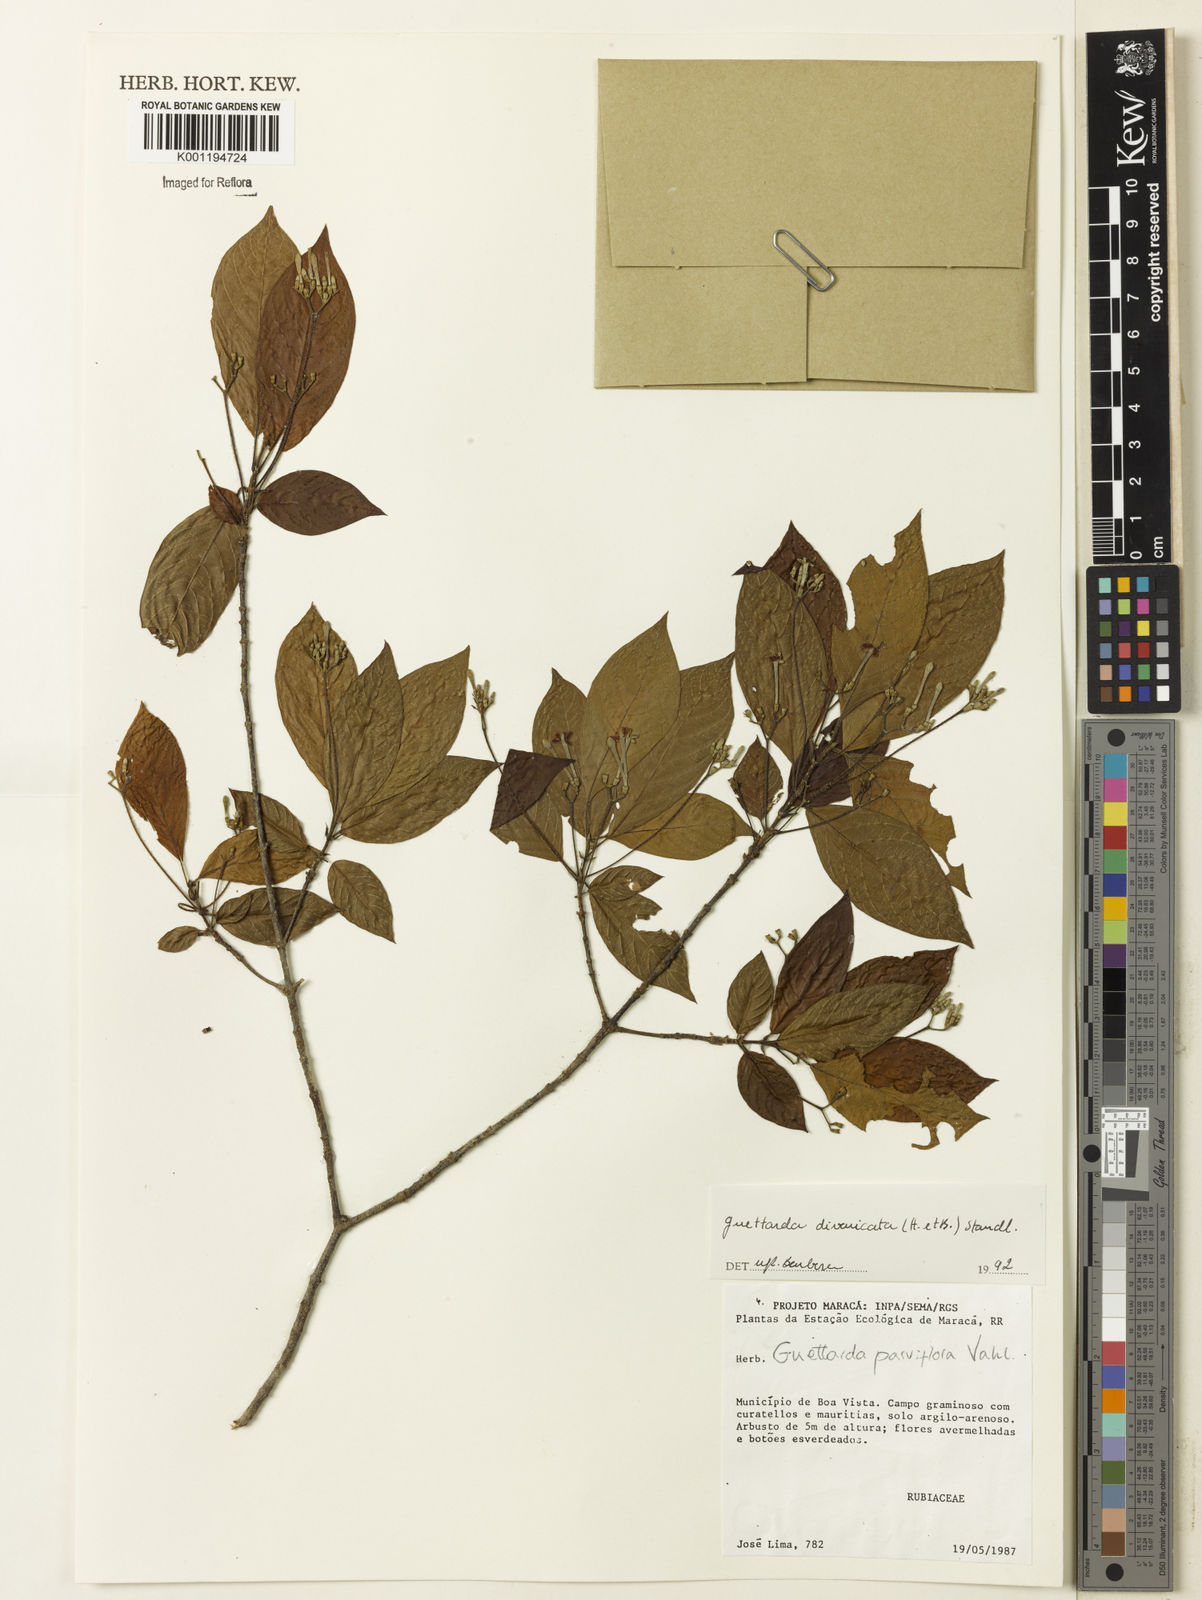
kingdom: Plantae
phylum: Tracheophyta
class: Magnoliopsida
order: Gentianales
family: Rubiaceae
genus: Guettarda
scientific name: Guettarda divaricata
